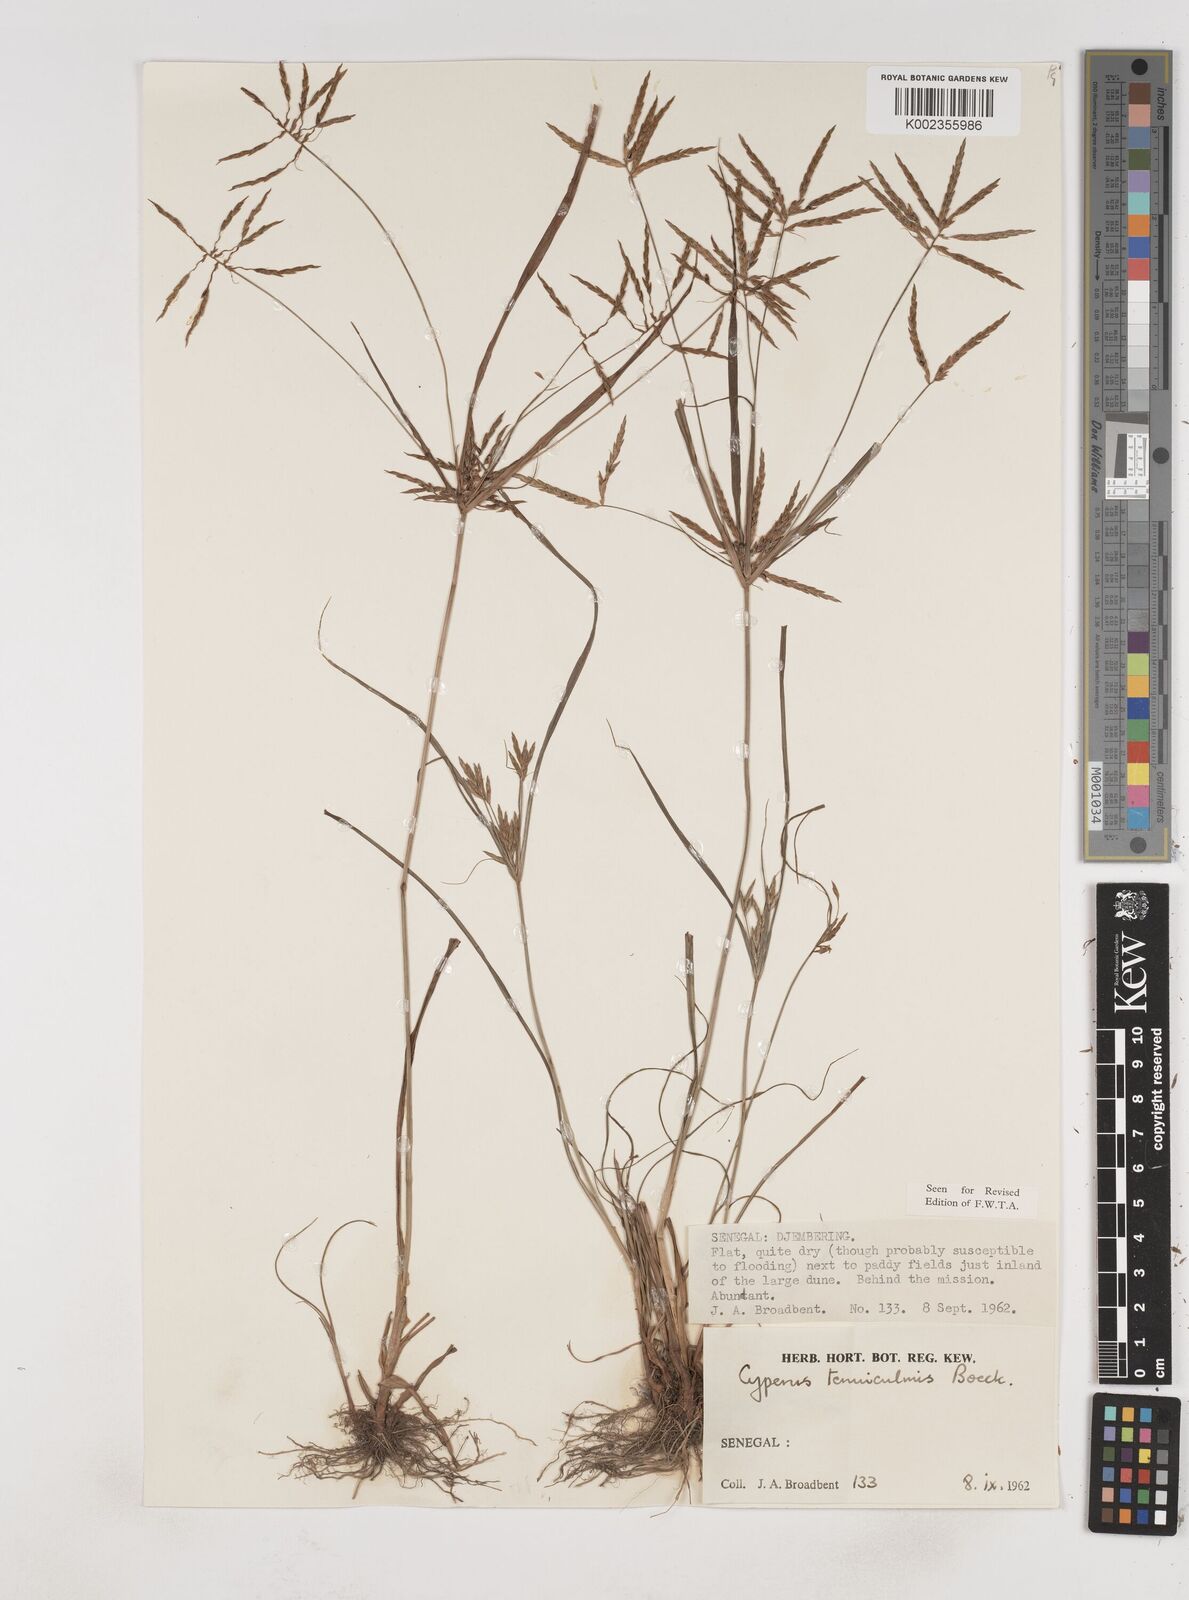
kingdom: Plantae
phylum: Tracheophyta
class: Liliopsida
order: Poales
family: Cyperaceae
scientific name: Cyperaceae
